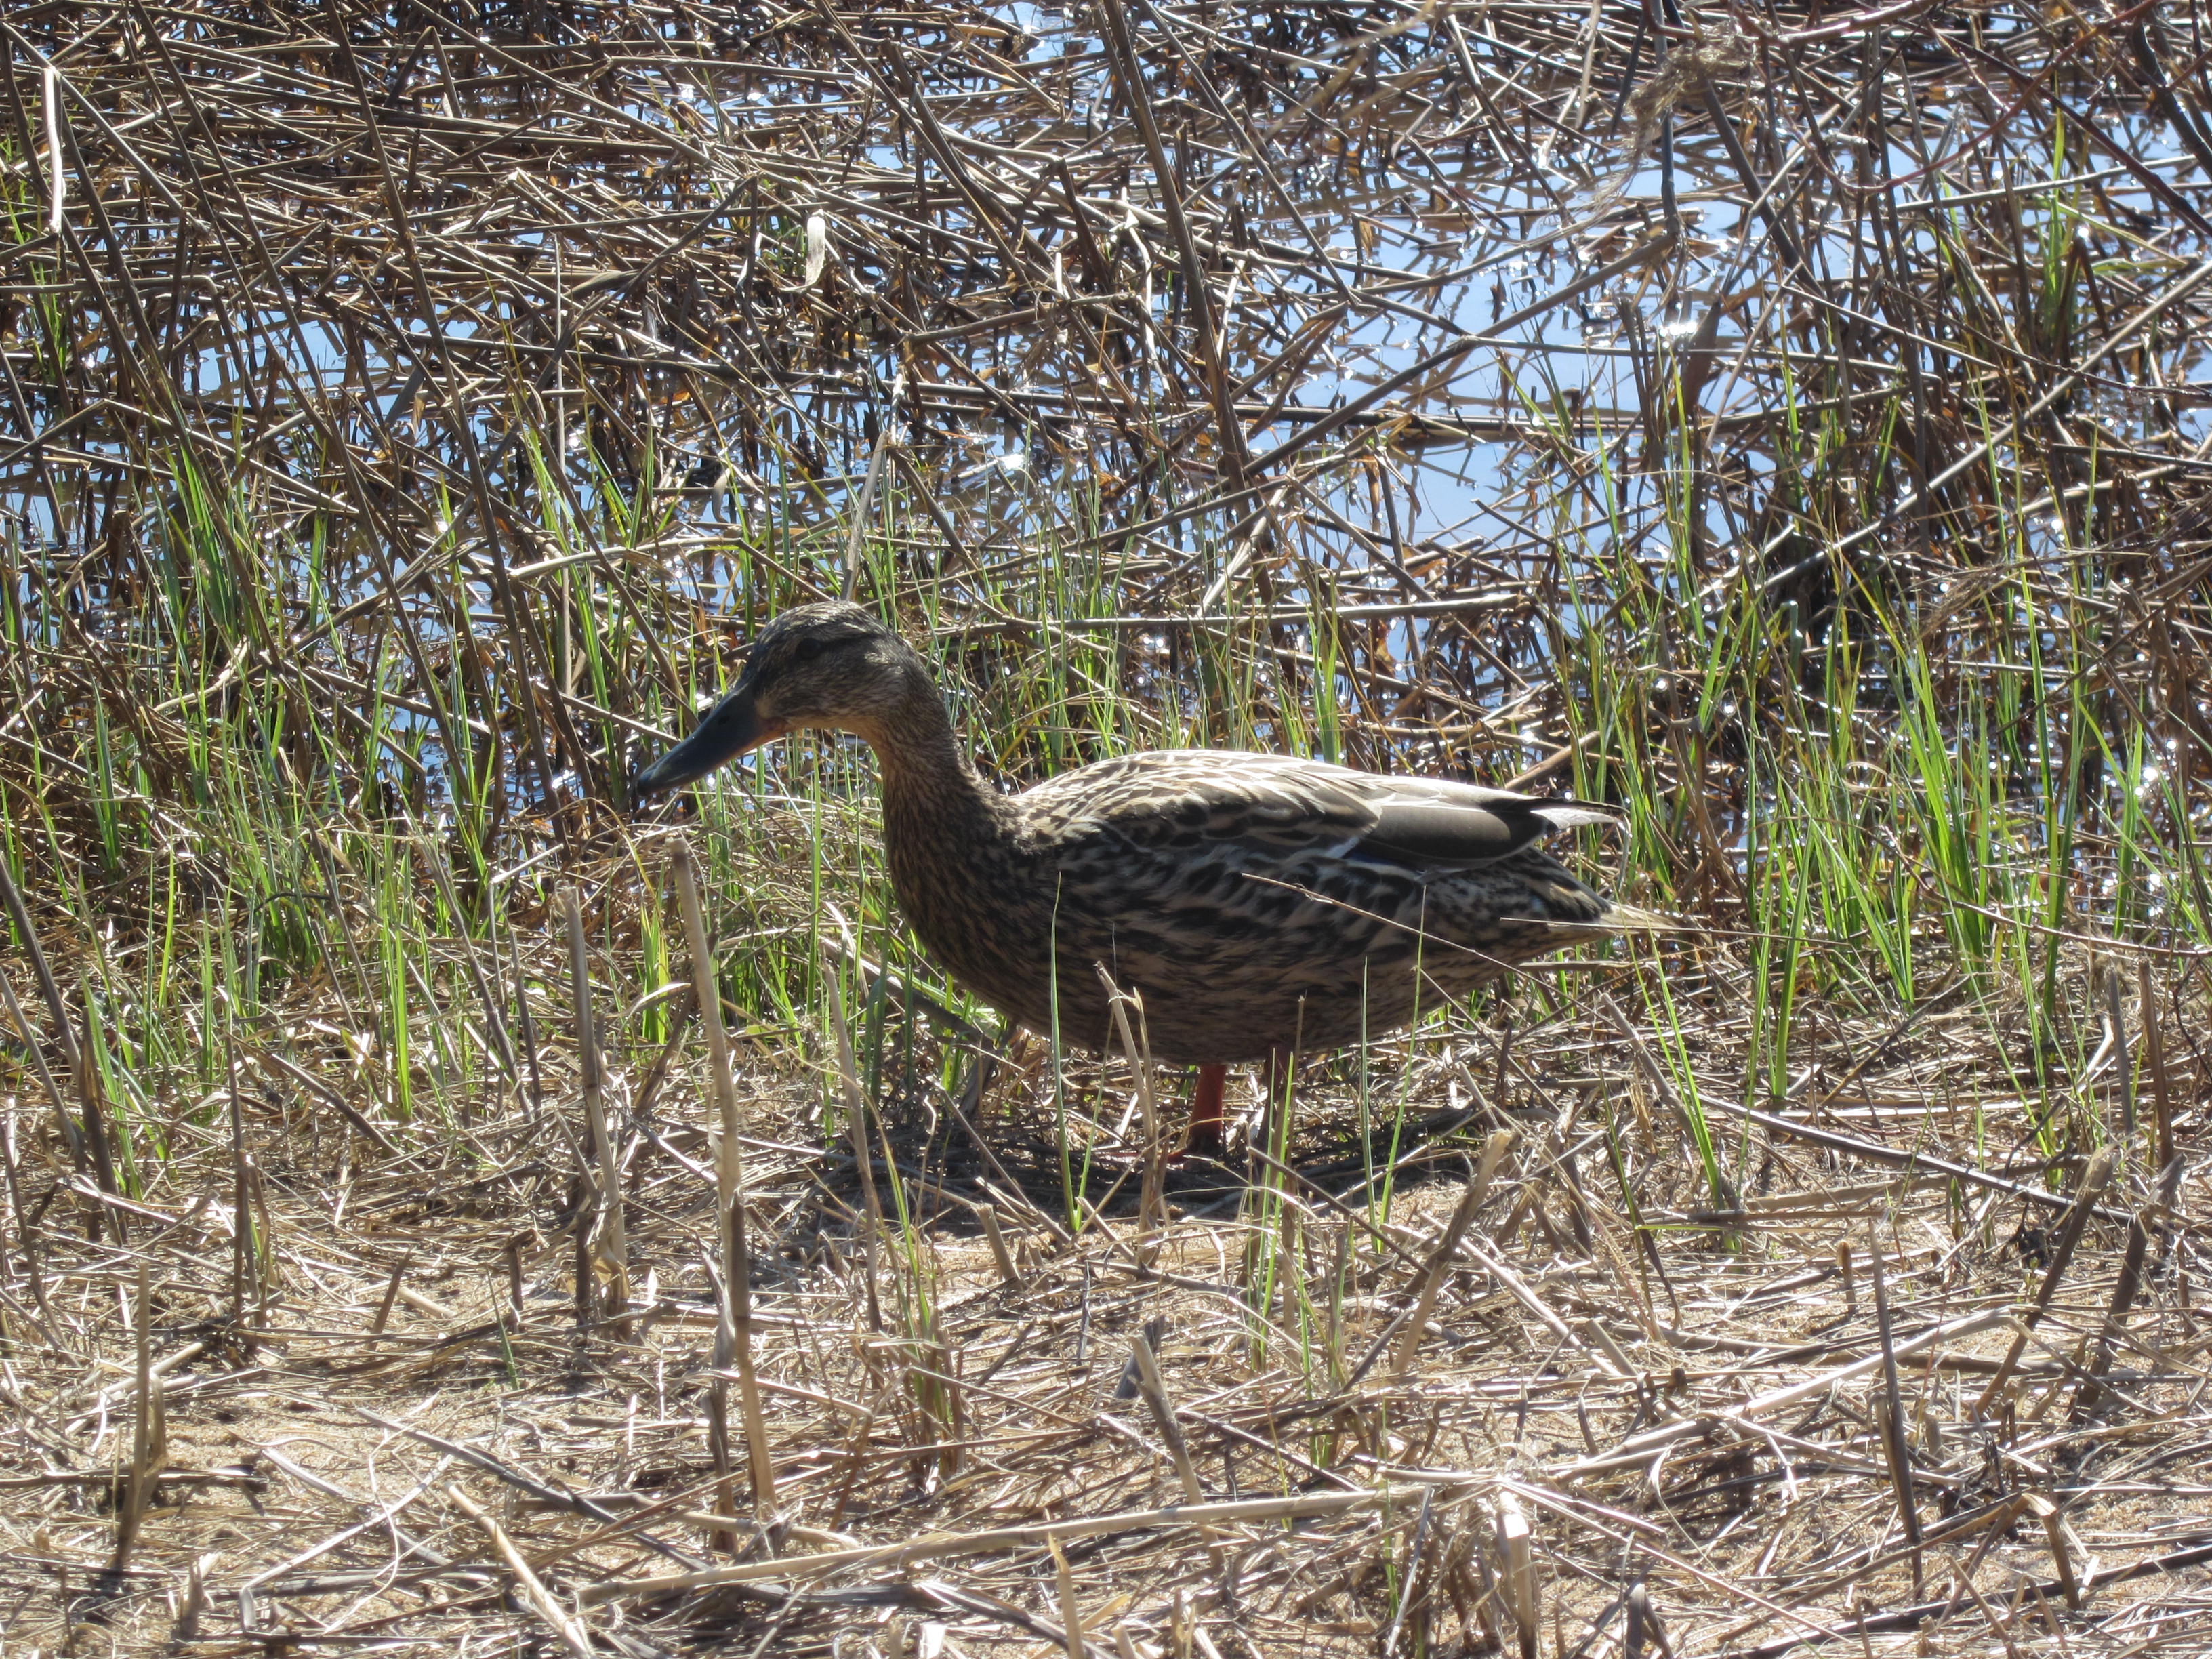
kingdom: Animalia
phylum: Chordata
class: Aves
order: Anseriformes
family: Anatidae
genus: Anas
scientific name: Anas platyrhynchos
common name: Mallard
